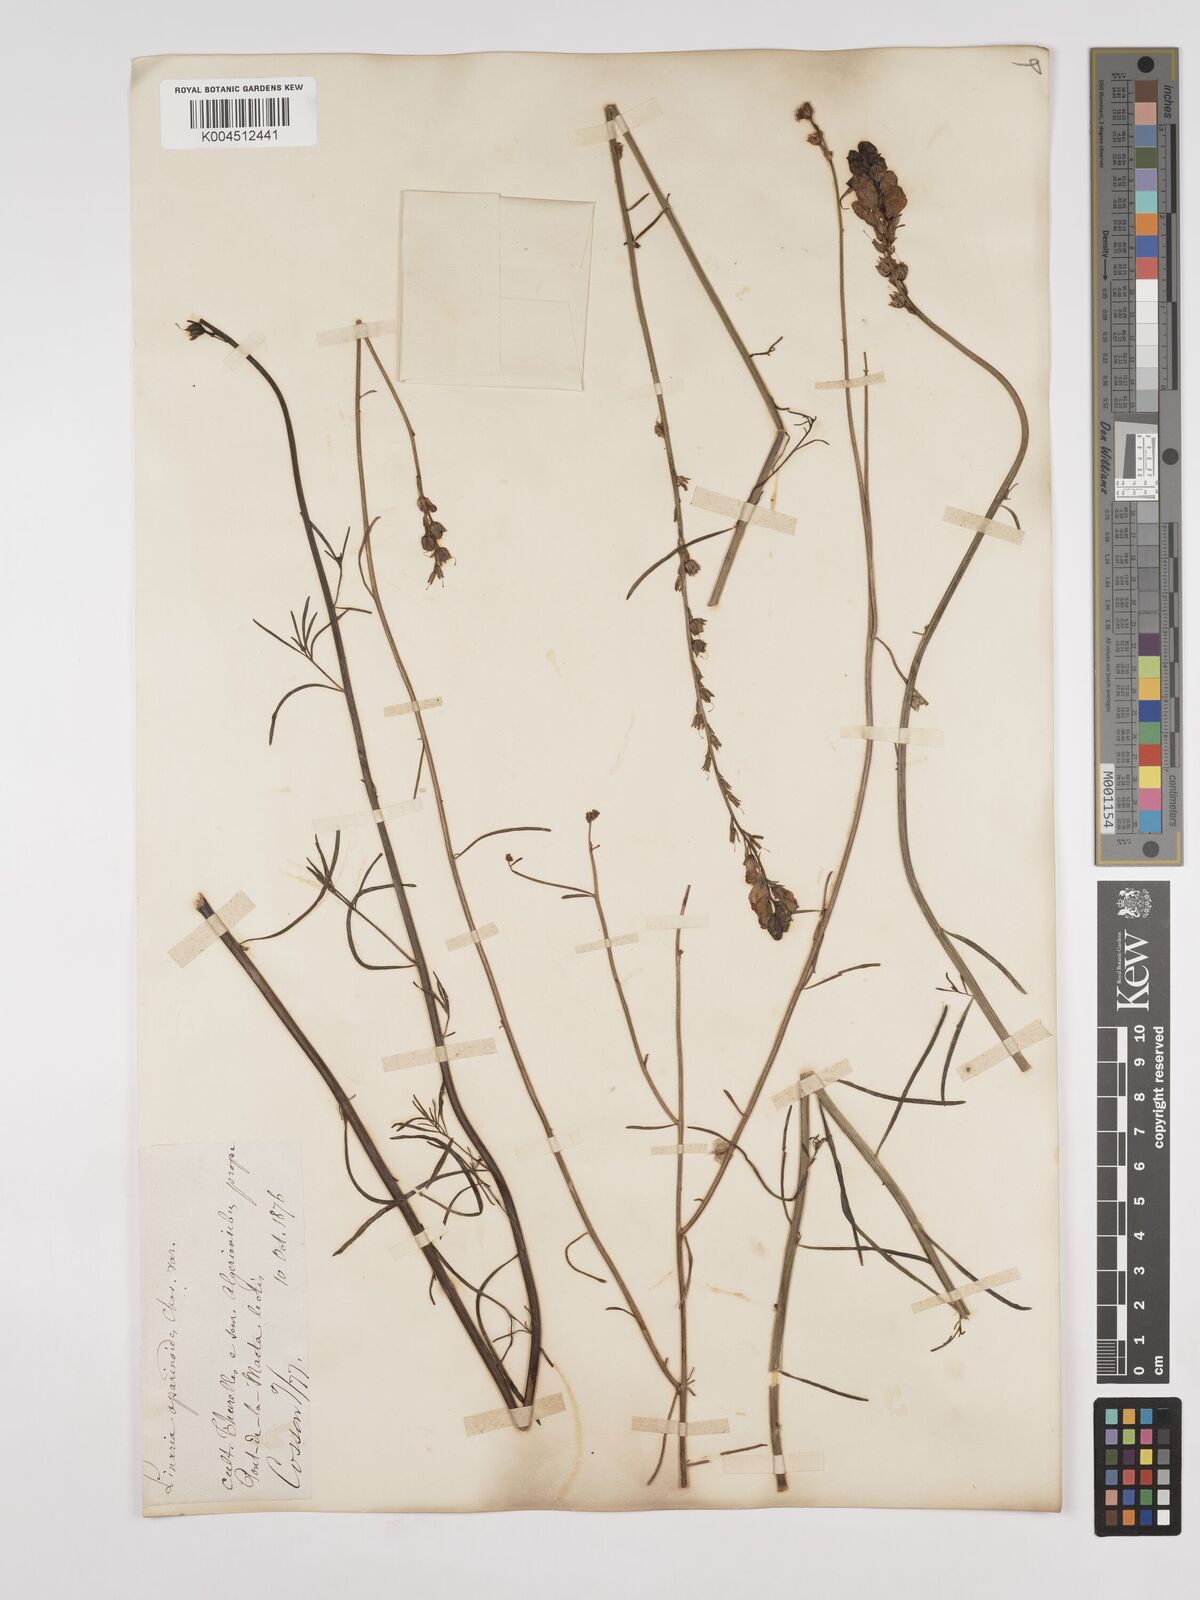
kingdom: Plantae
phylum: Tracheophyta
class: Magnoliopsida
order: Lamiales
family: Plantaginaceae
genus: Linaria
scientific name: Linaria multicaulis
